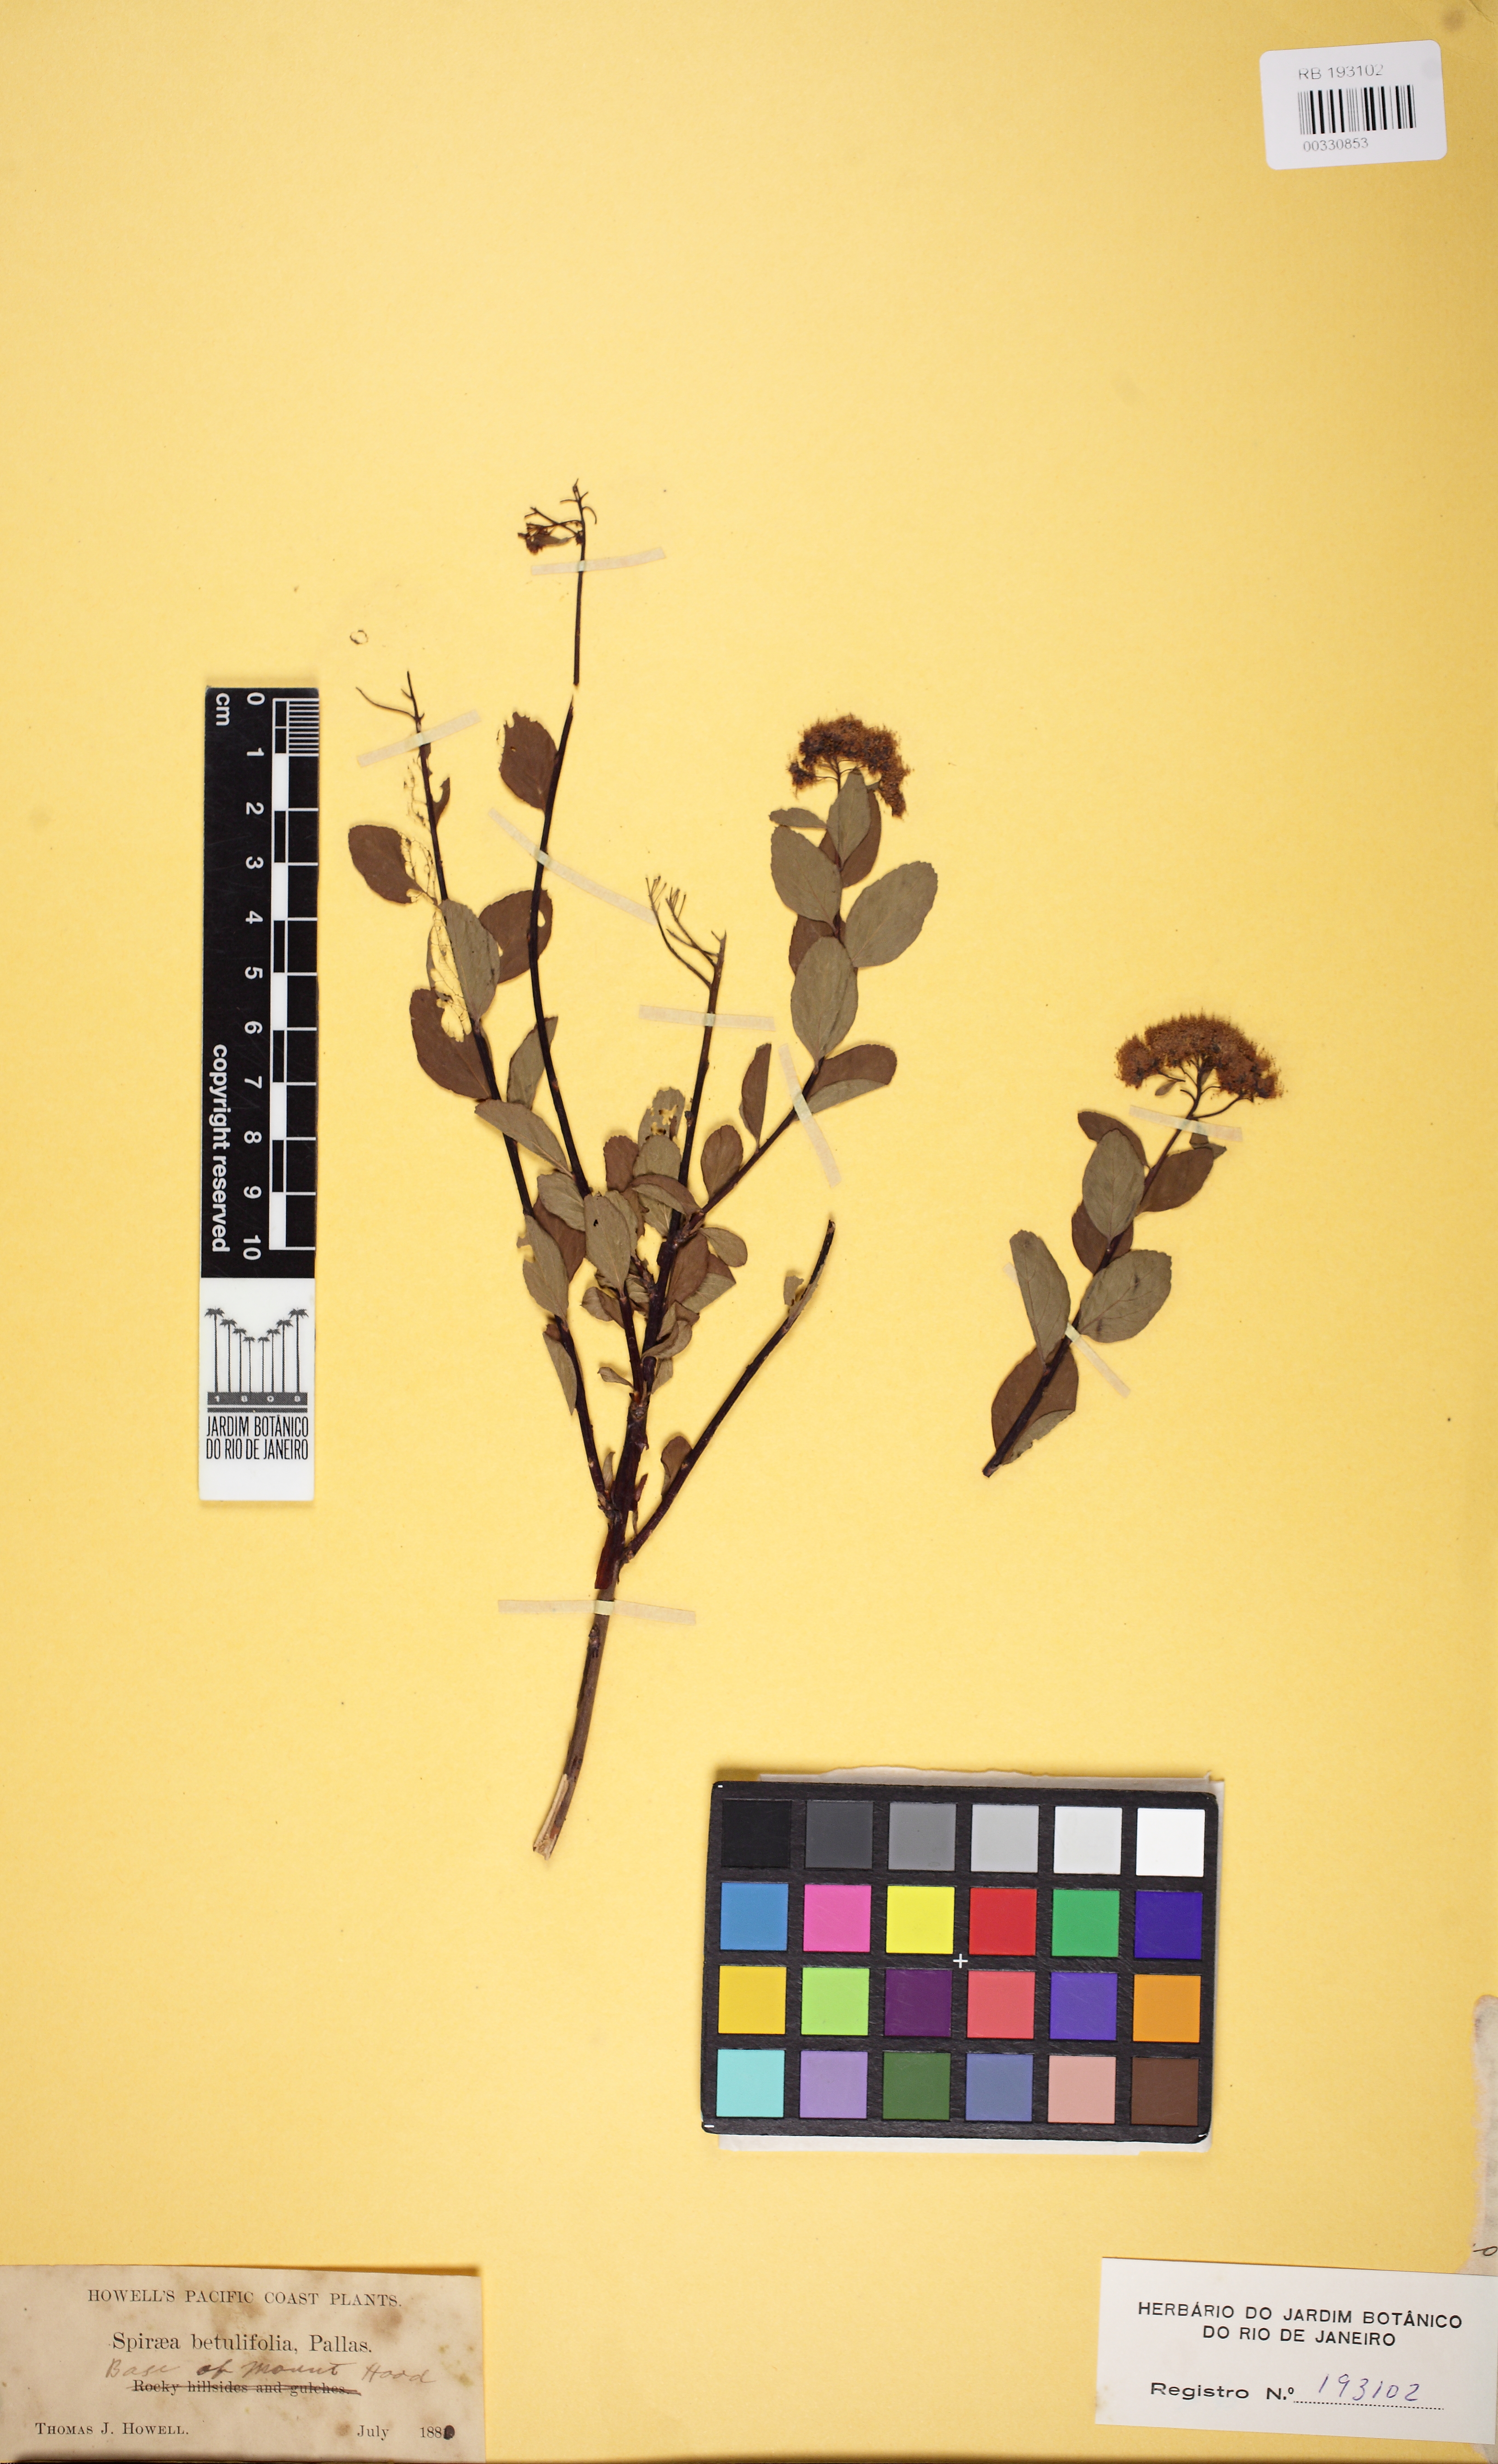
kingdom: Plantae
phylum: Tracheophyta
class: Magnoliopsida
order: Rosales
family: Rosaceae
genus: Spiraea
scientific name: Spiraea betulifolia
